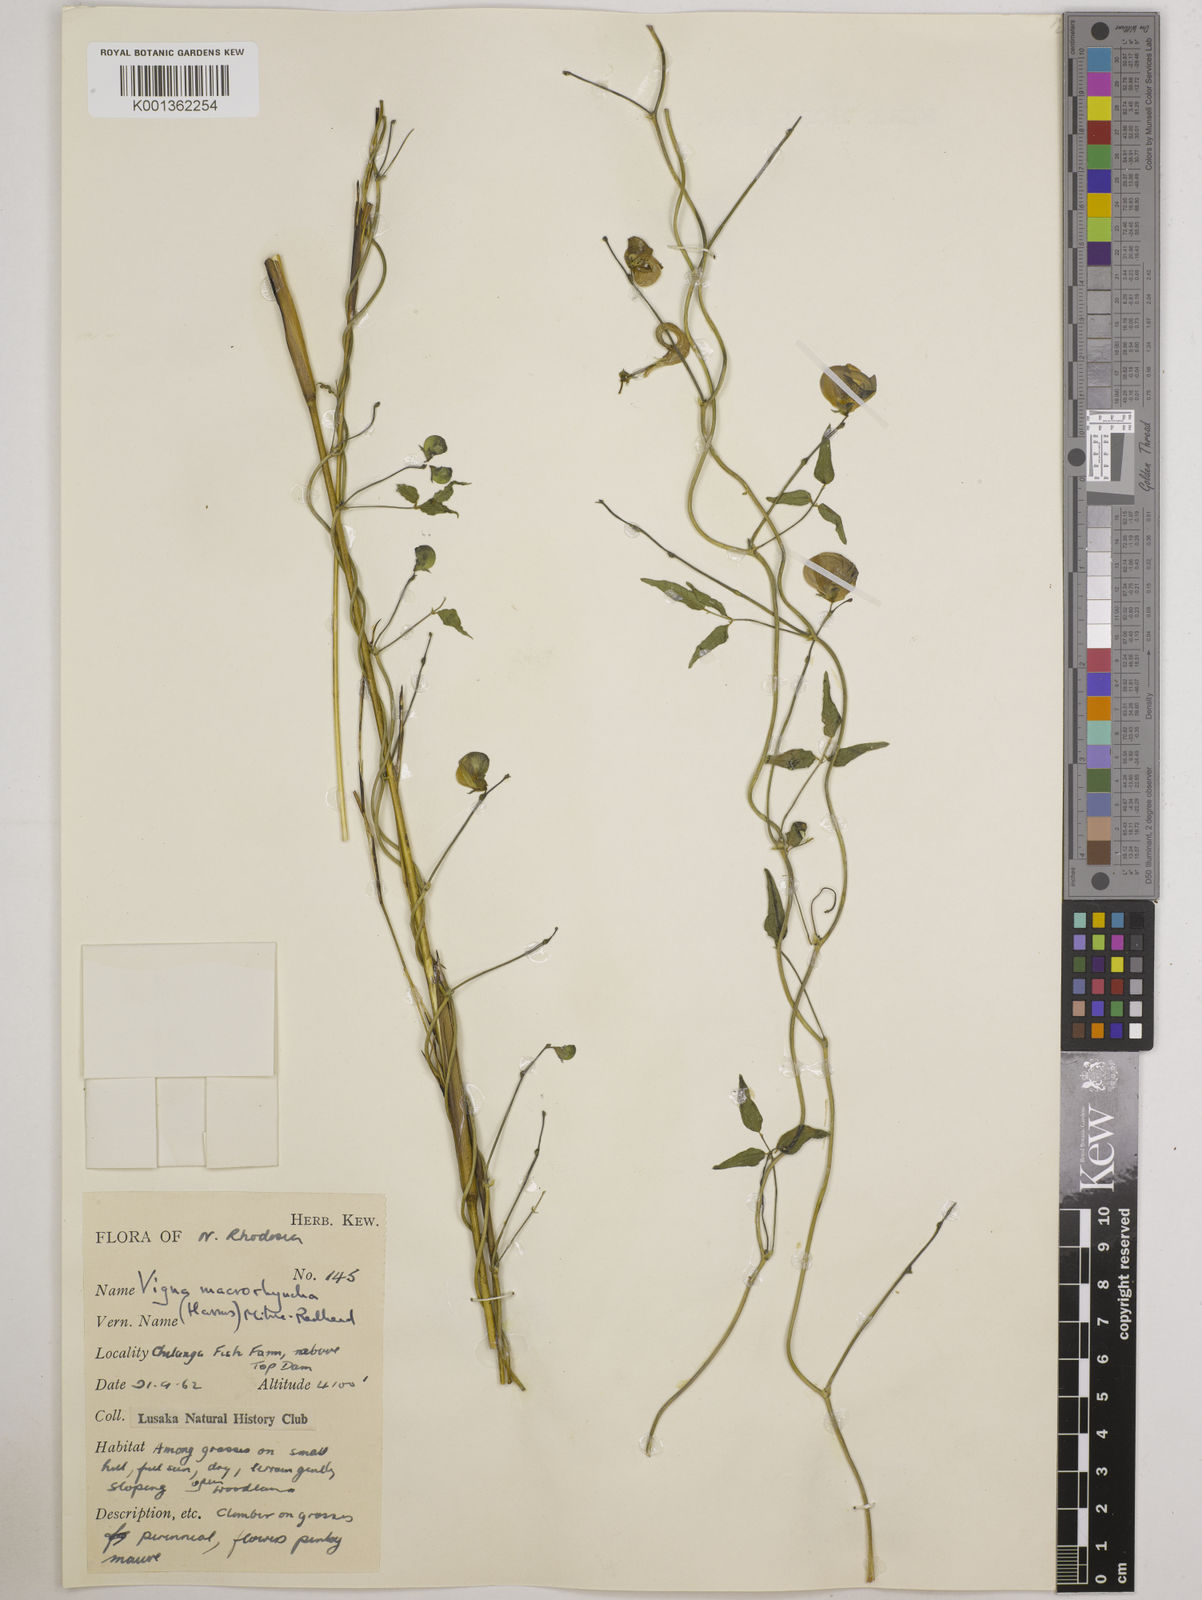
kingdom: Plantae
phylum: Tracheophyta
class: Magnoliopsida
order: Fabales
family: Fabaceae
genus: Wajira
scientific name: Wajira grahamiana
